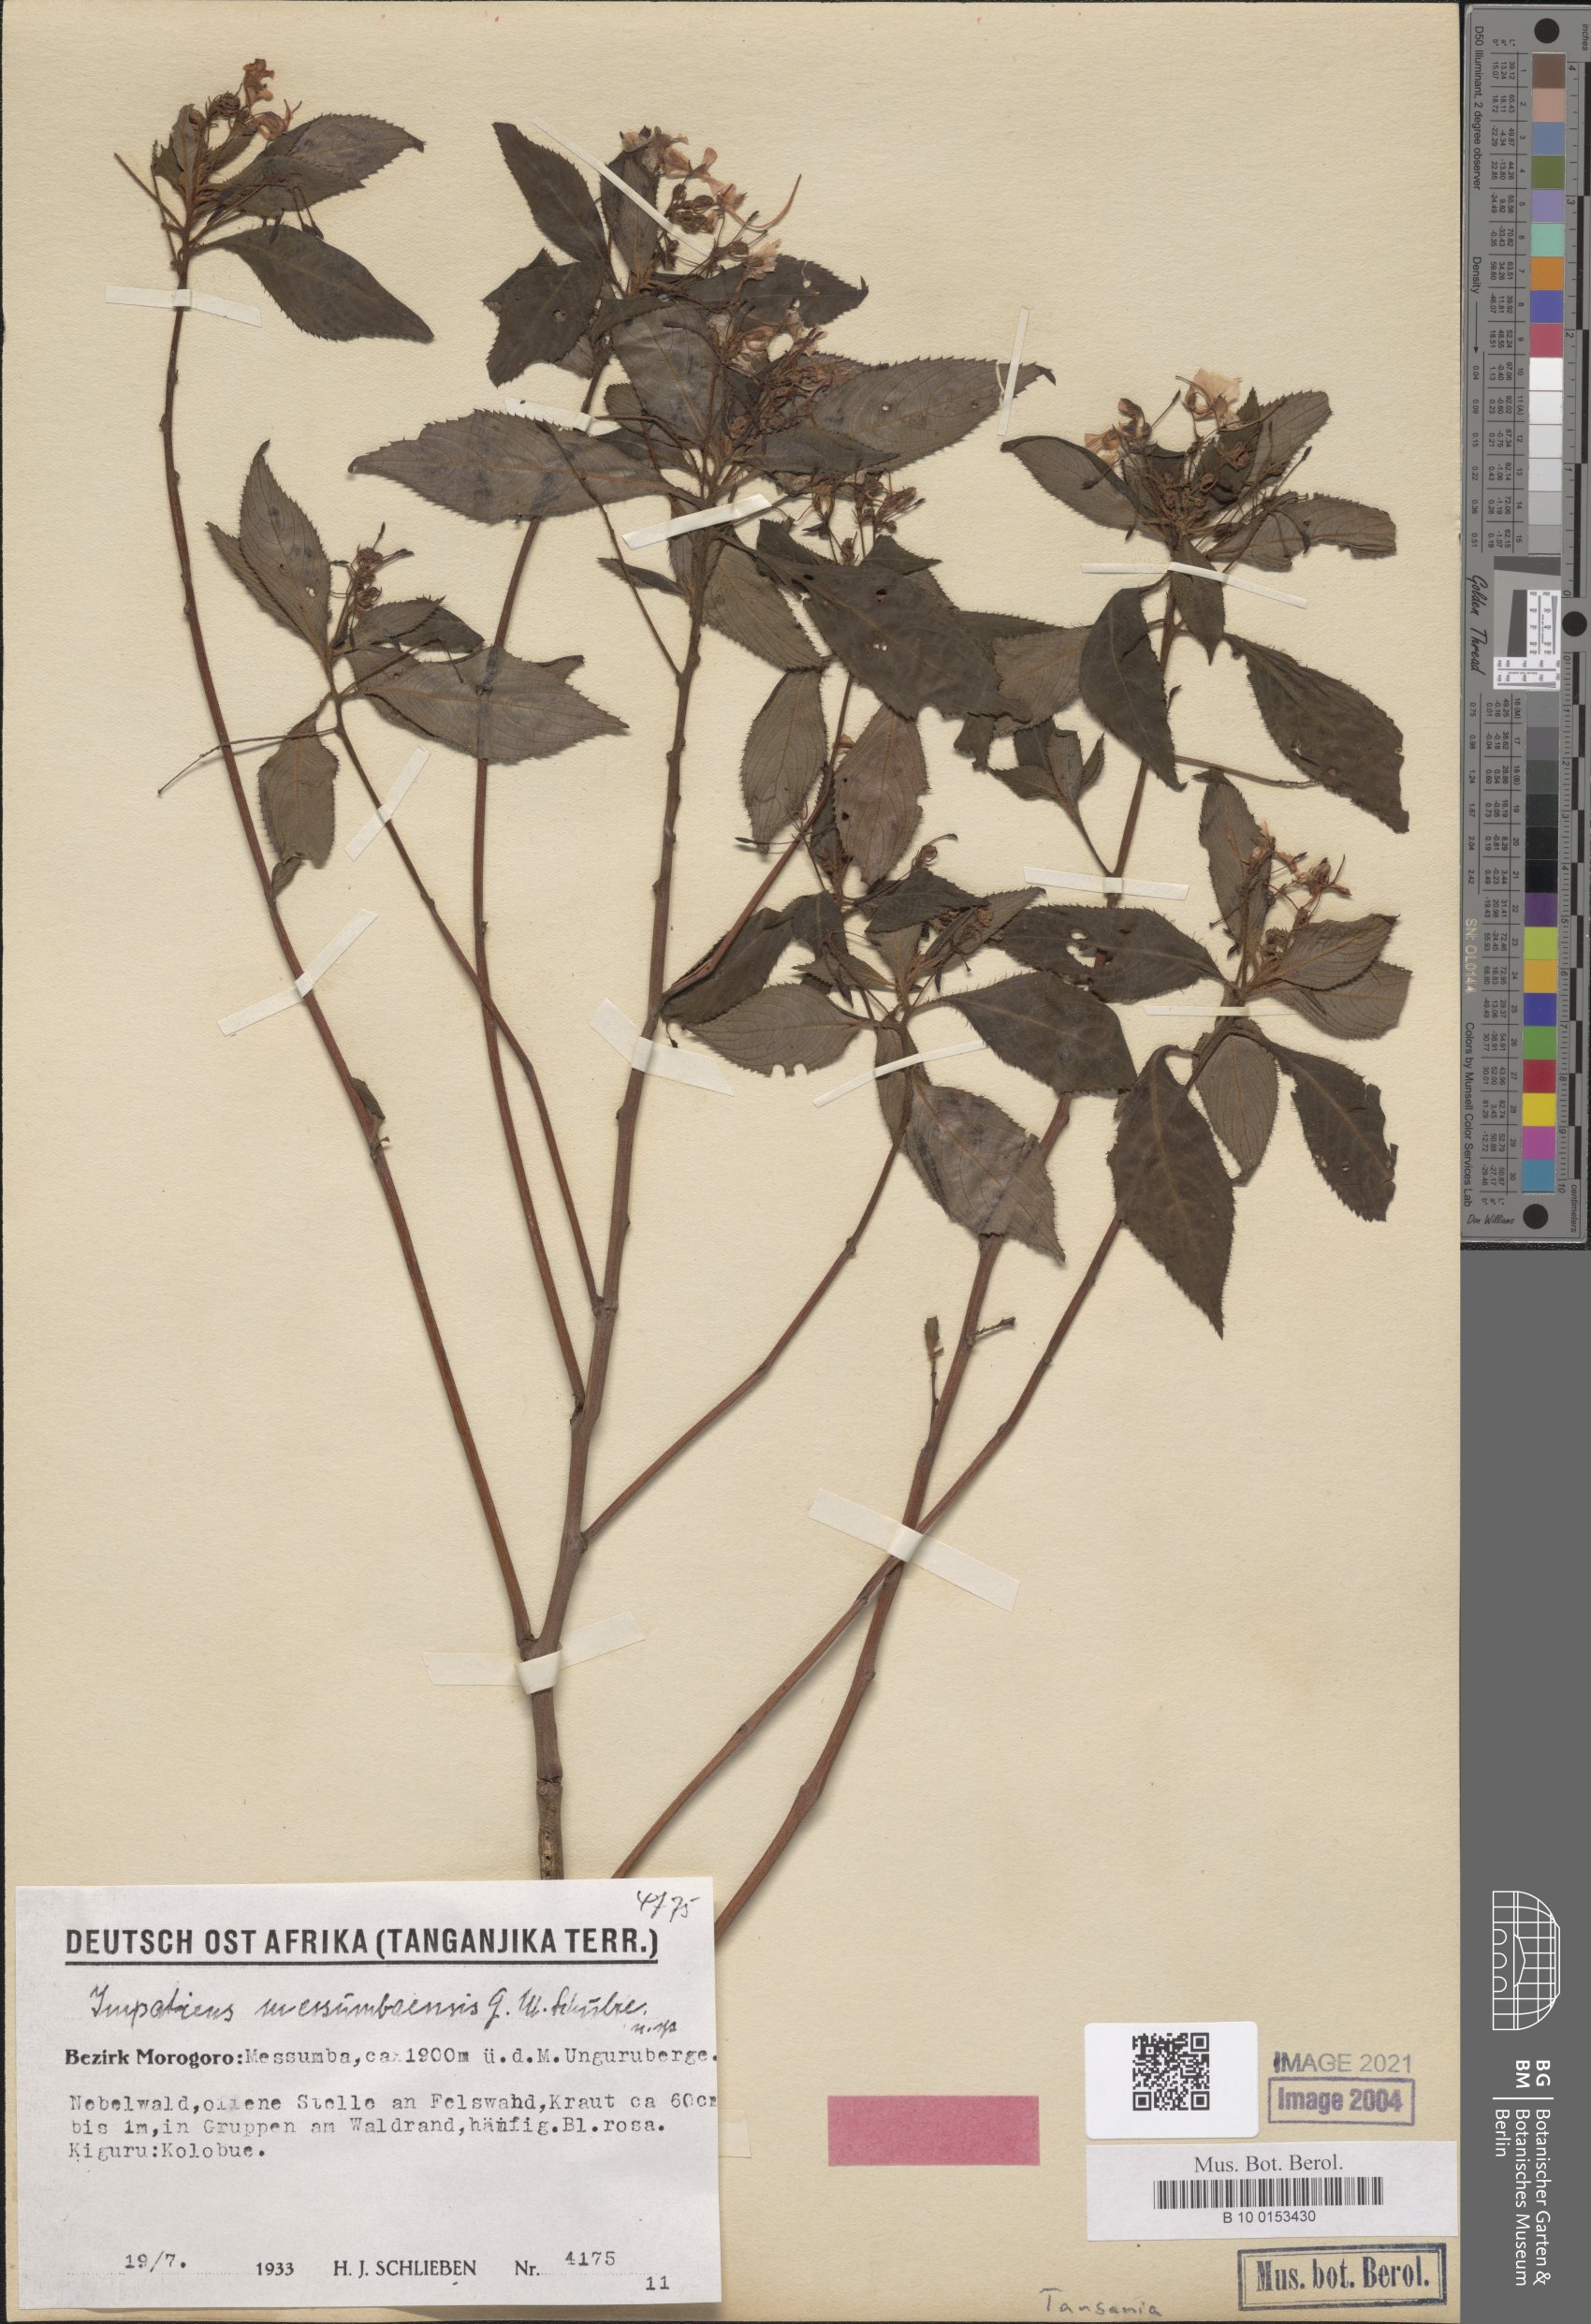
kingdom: Plantae
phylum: Tracheophyta
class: Magnoliopsida
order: Ericales
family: Balsaminaceae
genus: Impatiens
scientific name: Impatiens messumbaensis
